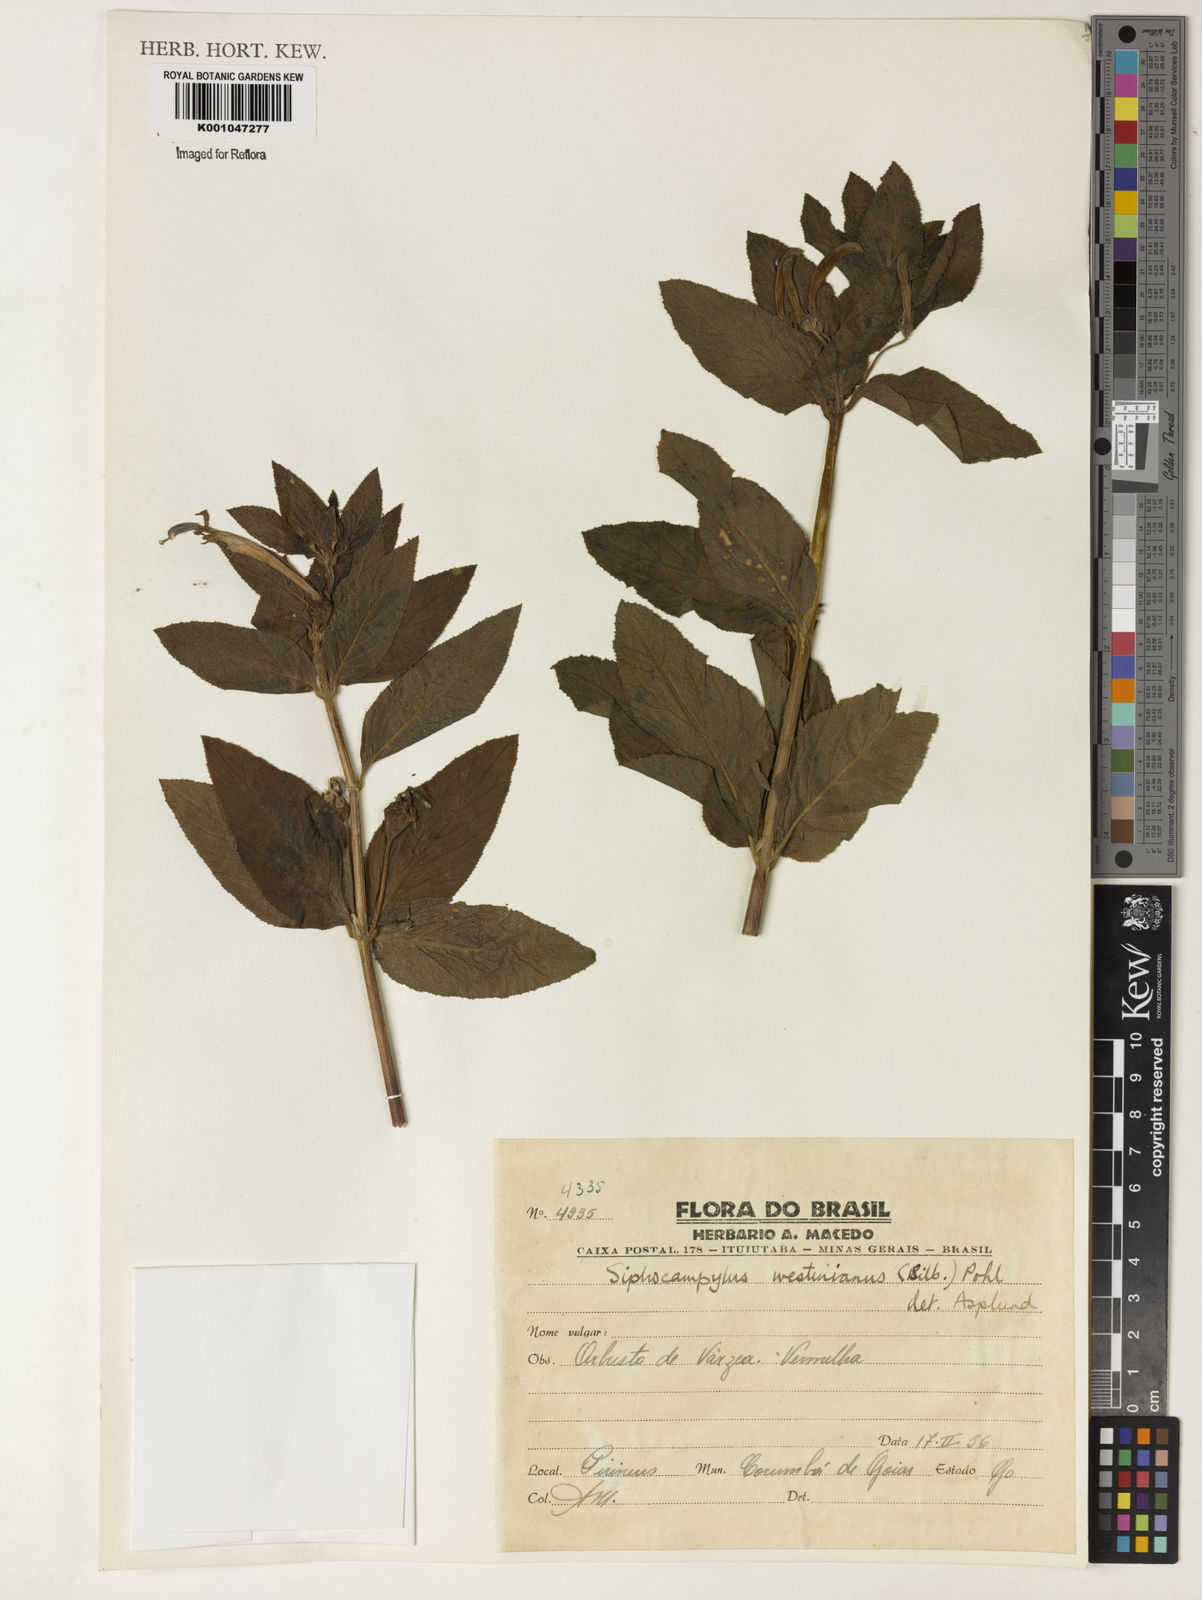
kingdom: Plantae
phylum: Tracheophyta
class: Magnoliopsida
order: Asterales
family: Campanulaceae
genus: Siphocampylus
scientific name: Siphocampylus westinianus
